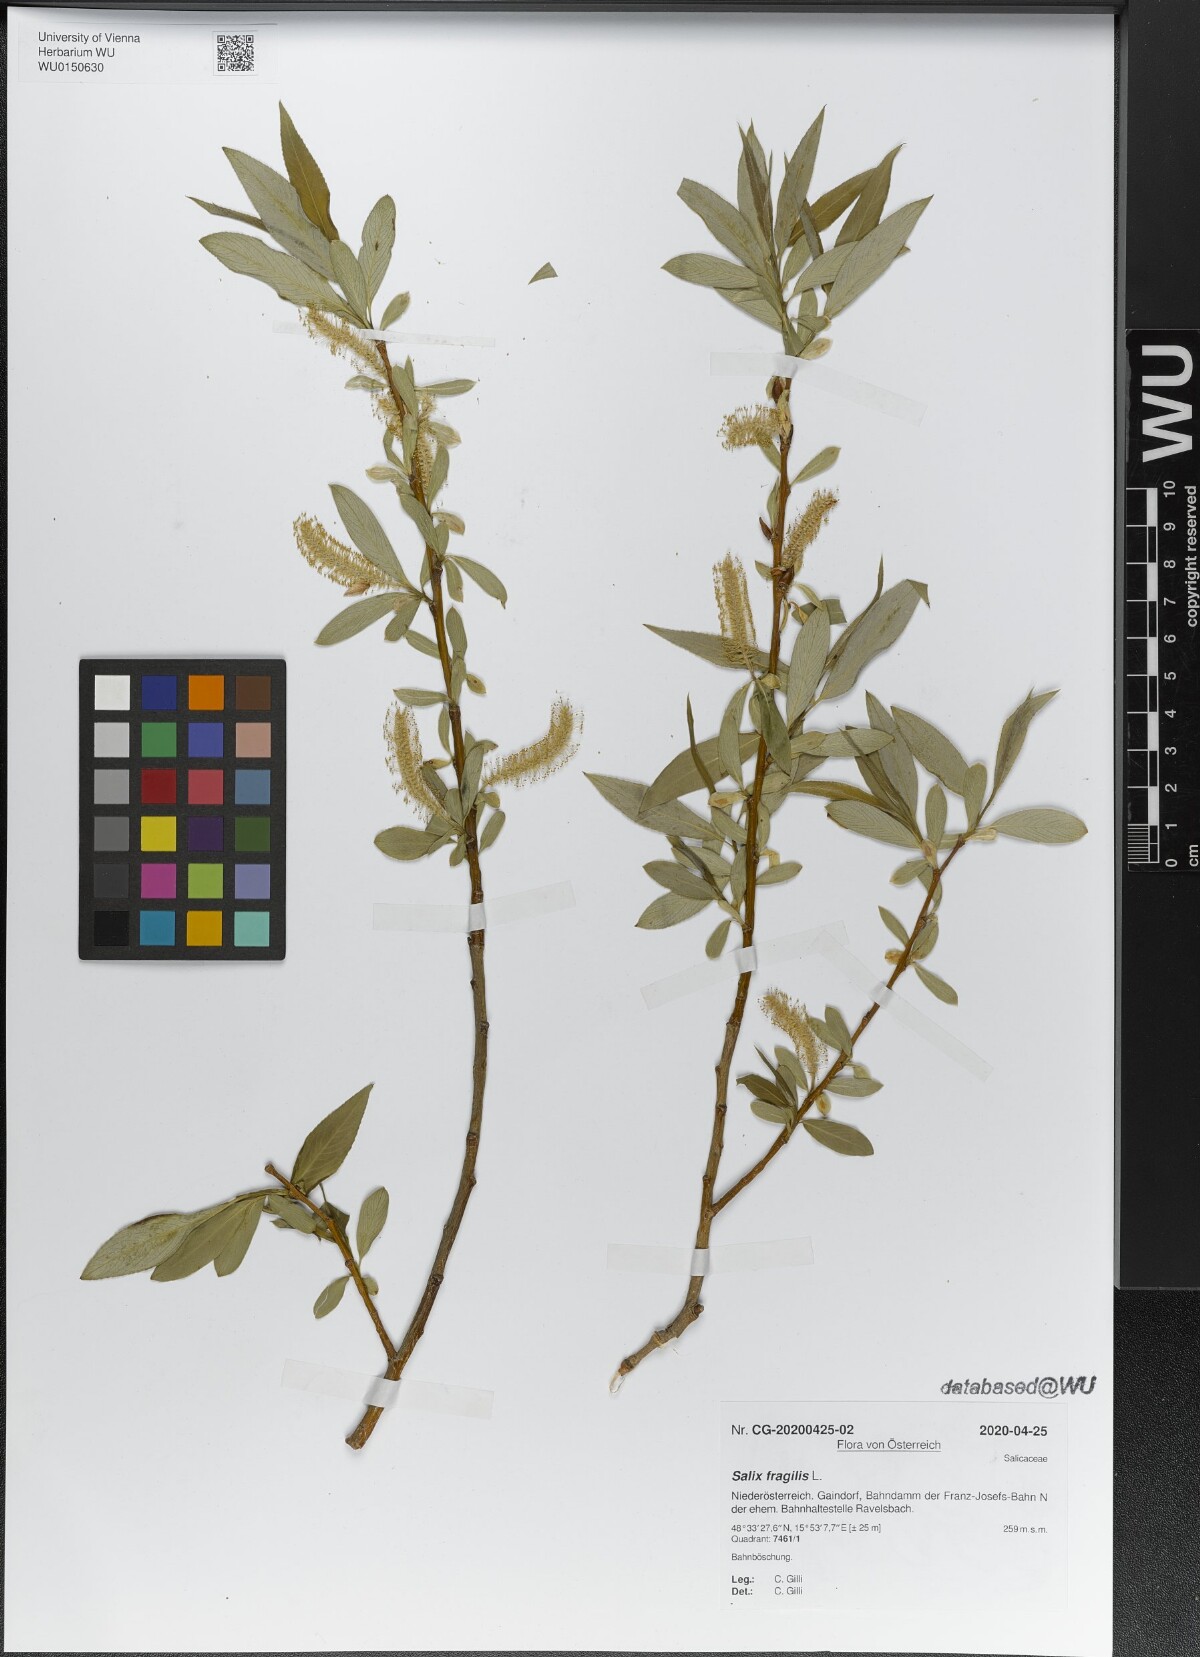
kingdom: Plantae
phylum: Tracheophyta
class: Magnoliopsida
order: Malpighiales
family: Salicaceae
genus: Salix
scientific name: Salix fragilis
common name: Crack willow
